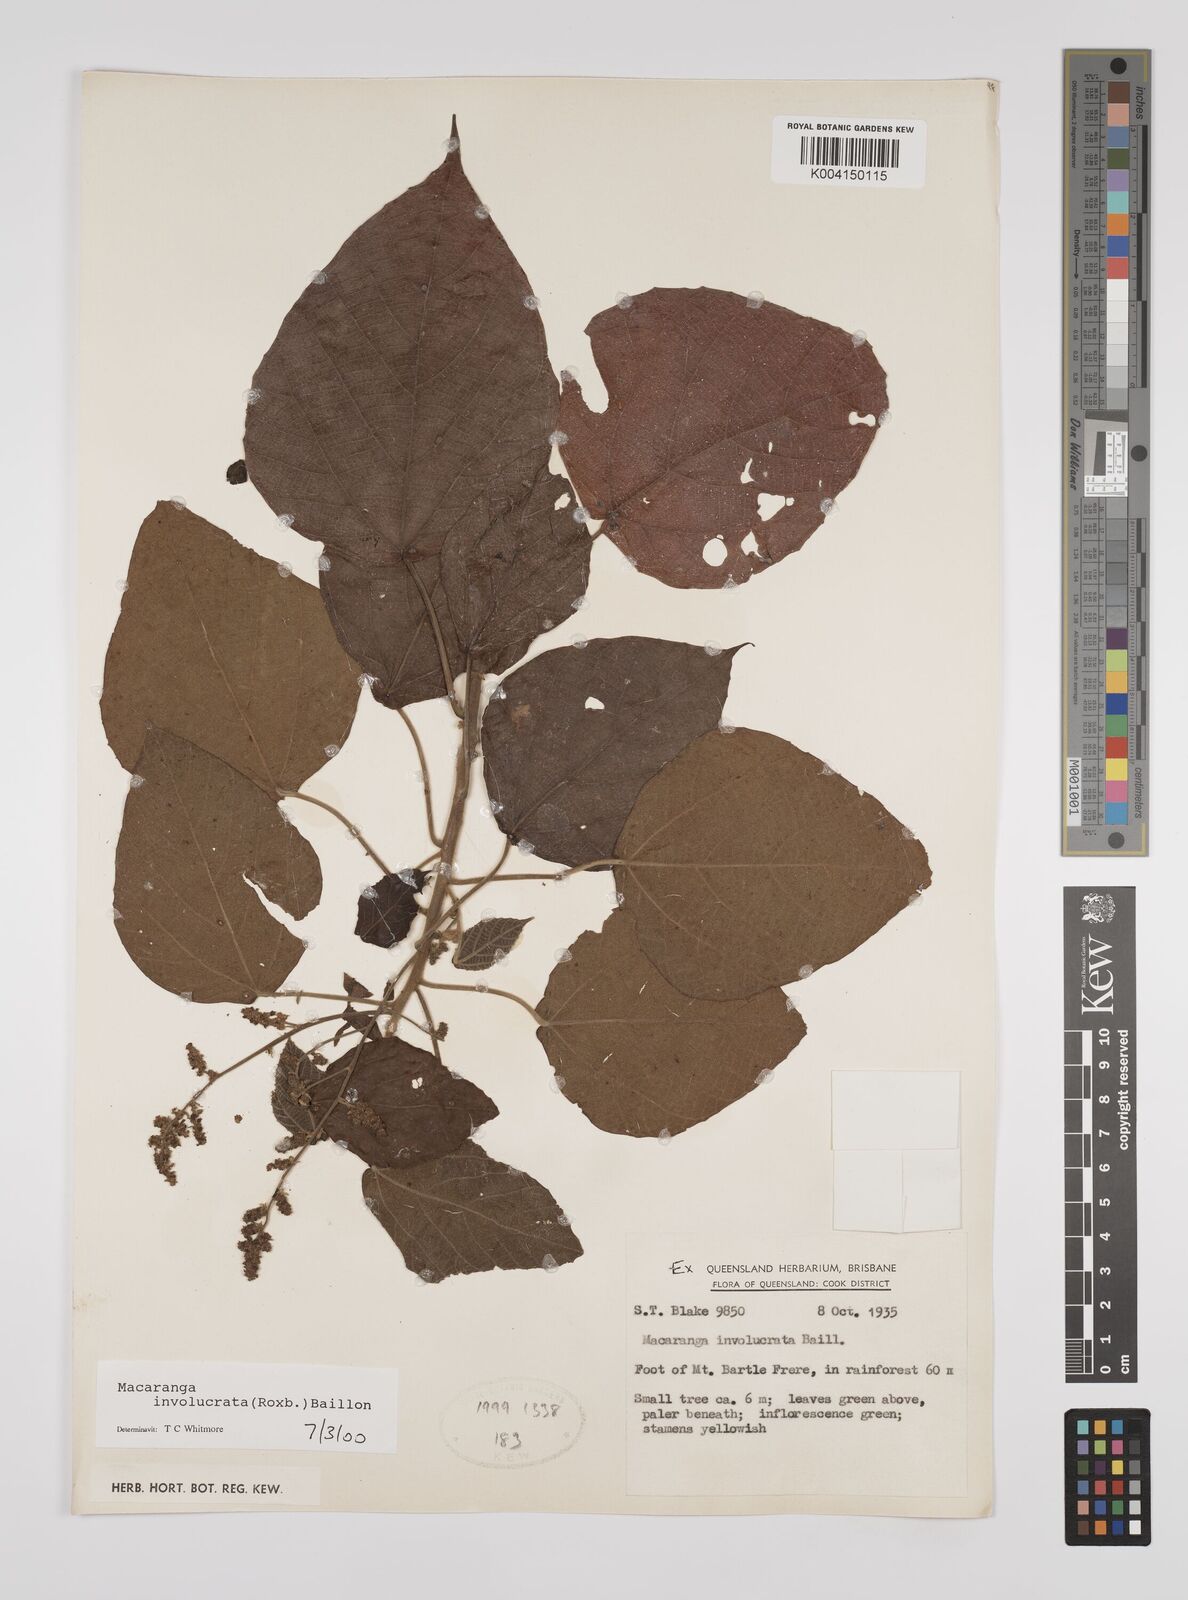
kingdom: Plantae
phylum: Tracheophyta
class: Magnoliopsida
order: Malpighiales
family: Euphorbiaceae
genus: Macaranga
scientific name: Macaranga involucrata
